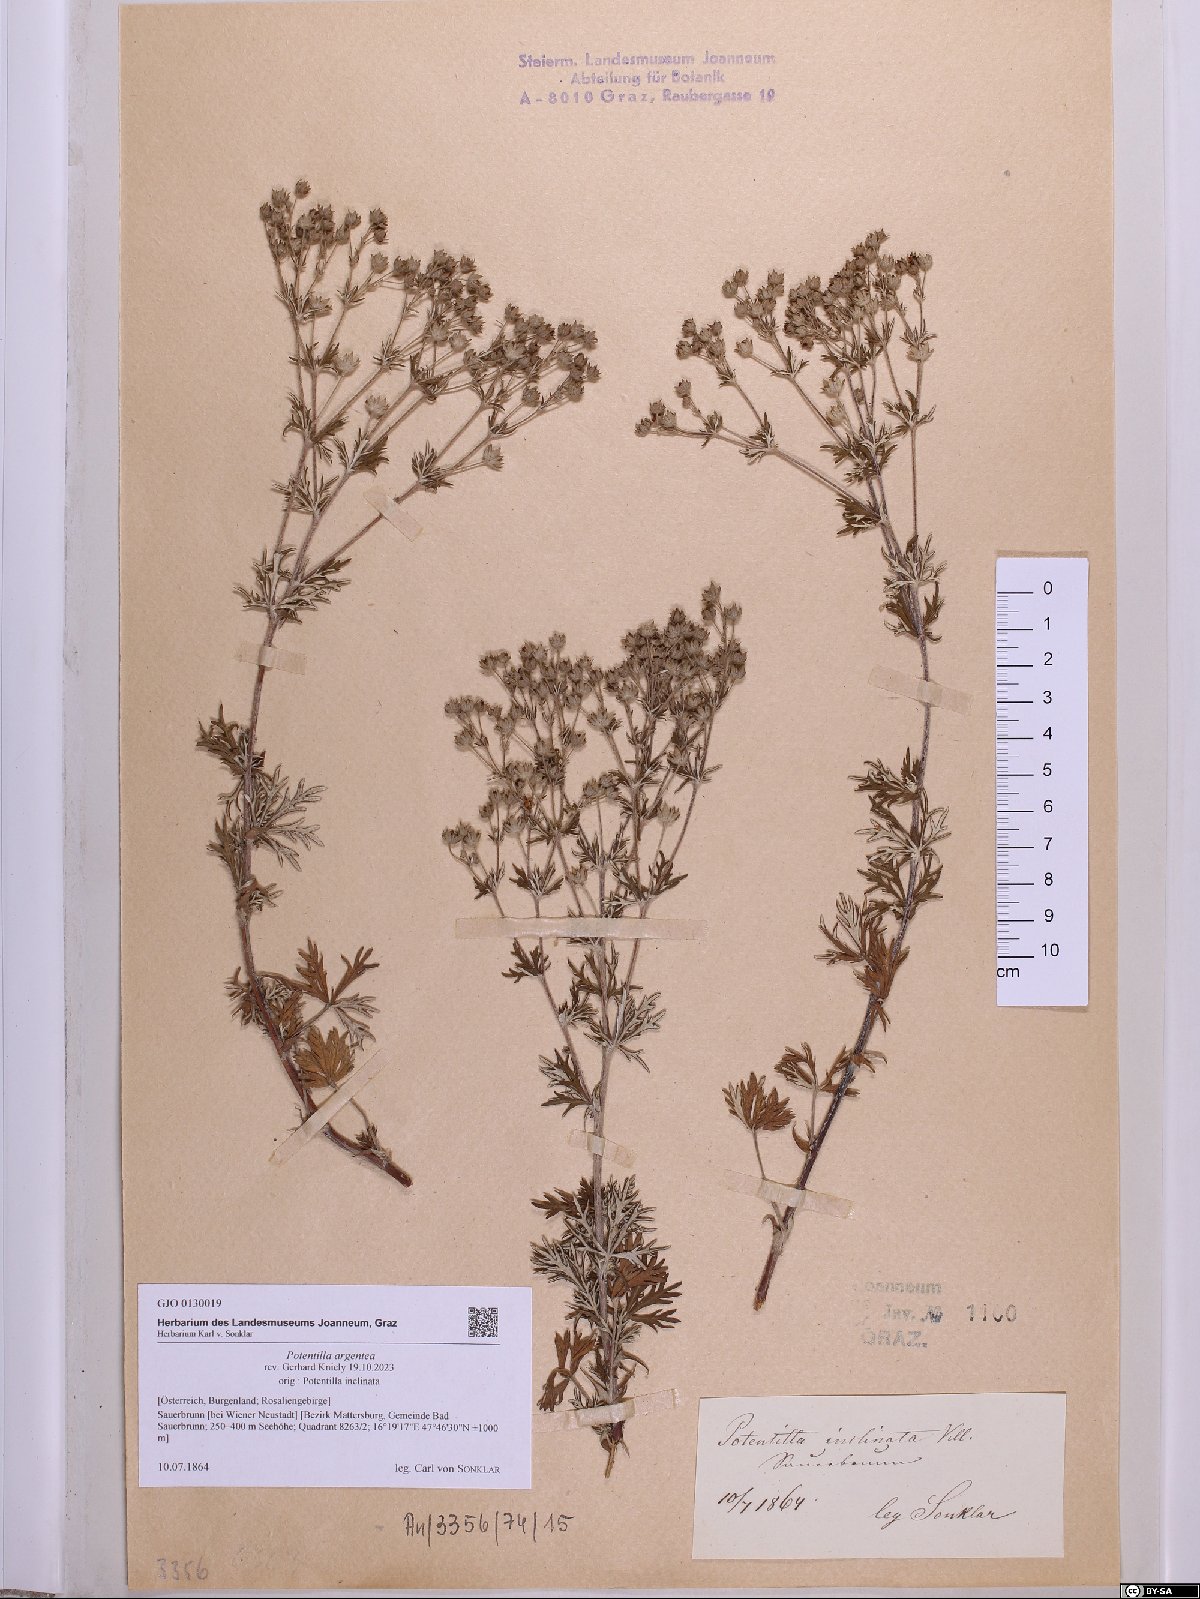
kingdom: Plantae
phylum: Tracheophyta
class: Magnoliopsida
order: Rosales
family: Rosaceae
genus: Potentilla
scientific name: Potentilla argentea
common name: Hoary cinquefoil
